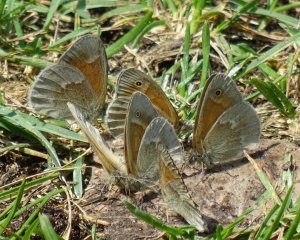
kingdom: Animalia
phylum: Arthropoda
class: Insecta
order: Lepidoptera
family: Nymphalidae
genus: Coenonympha
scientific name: Coenonympha tullia
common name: Large Heath
